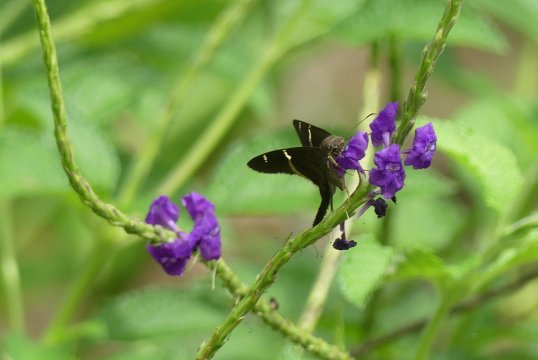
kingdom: Animalia
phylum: Arthropoda
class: Insecta
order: Lepidoptera
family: Nymphalidae
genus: Junonia
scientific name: Junonia lavinia
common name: Tropical Buckeye
